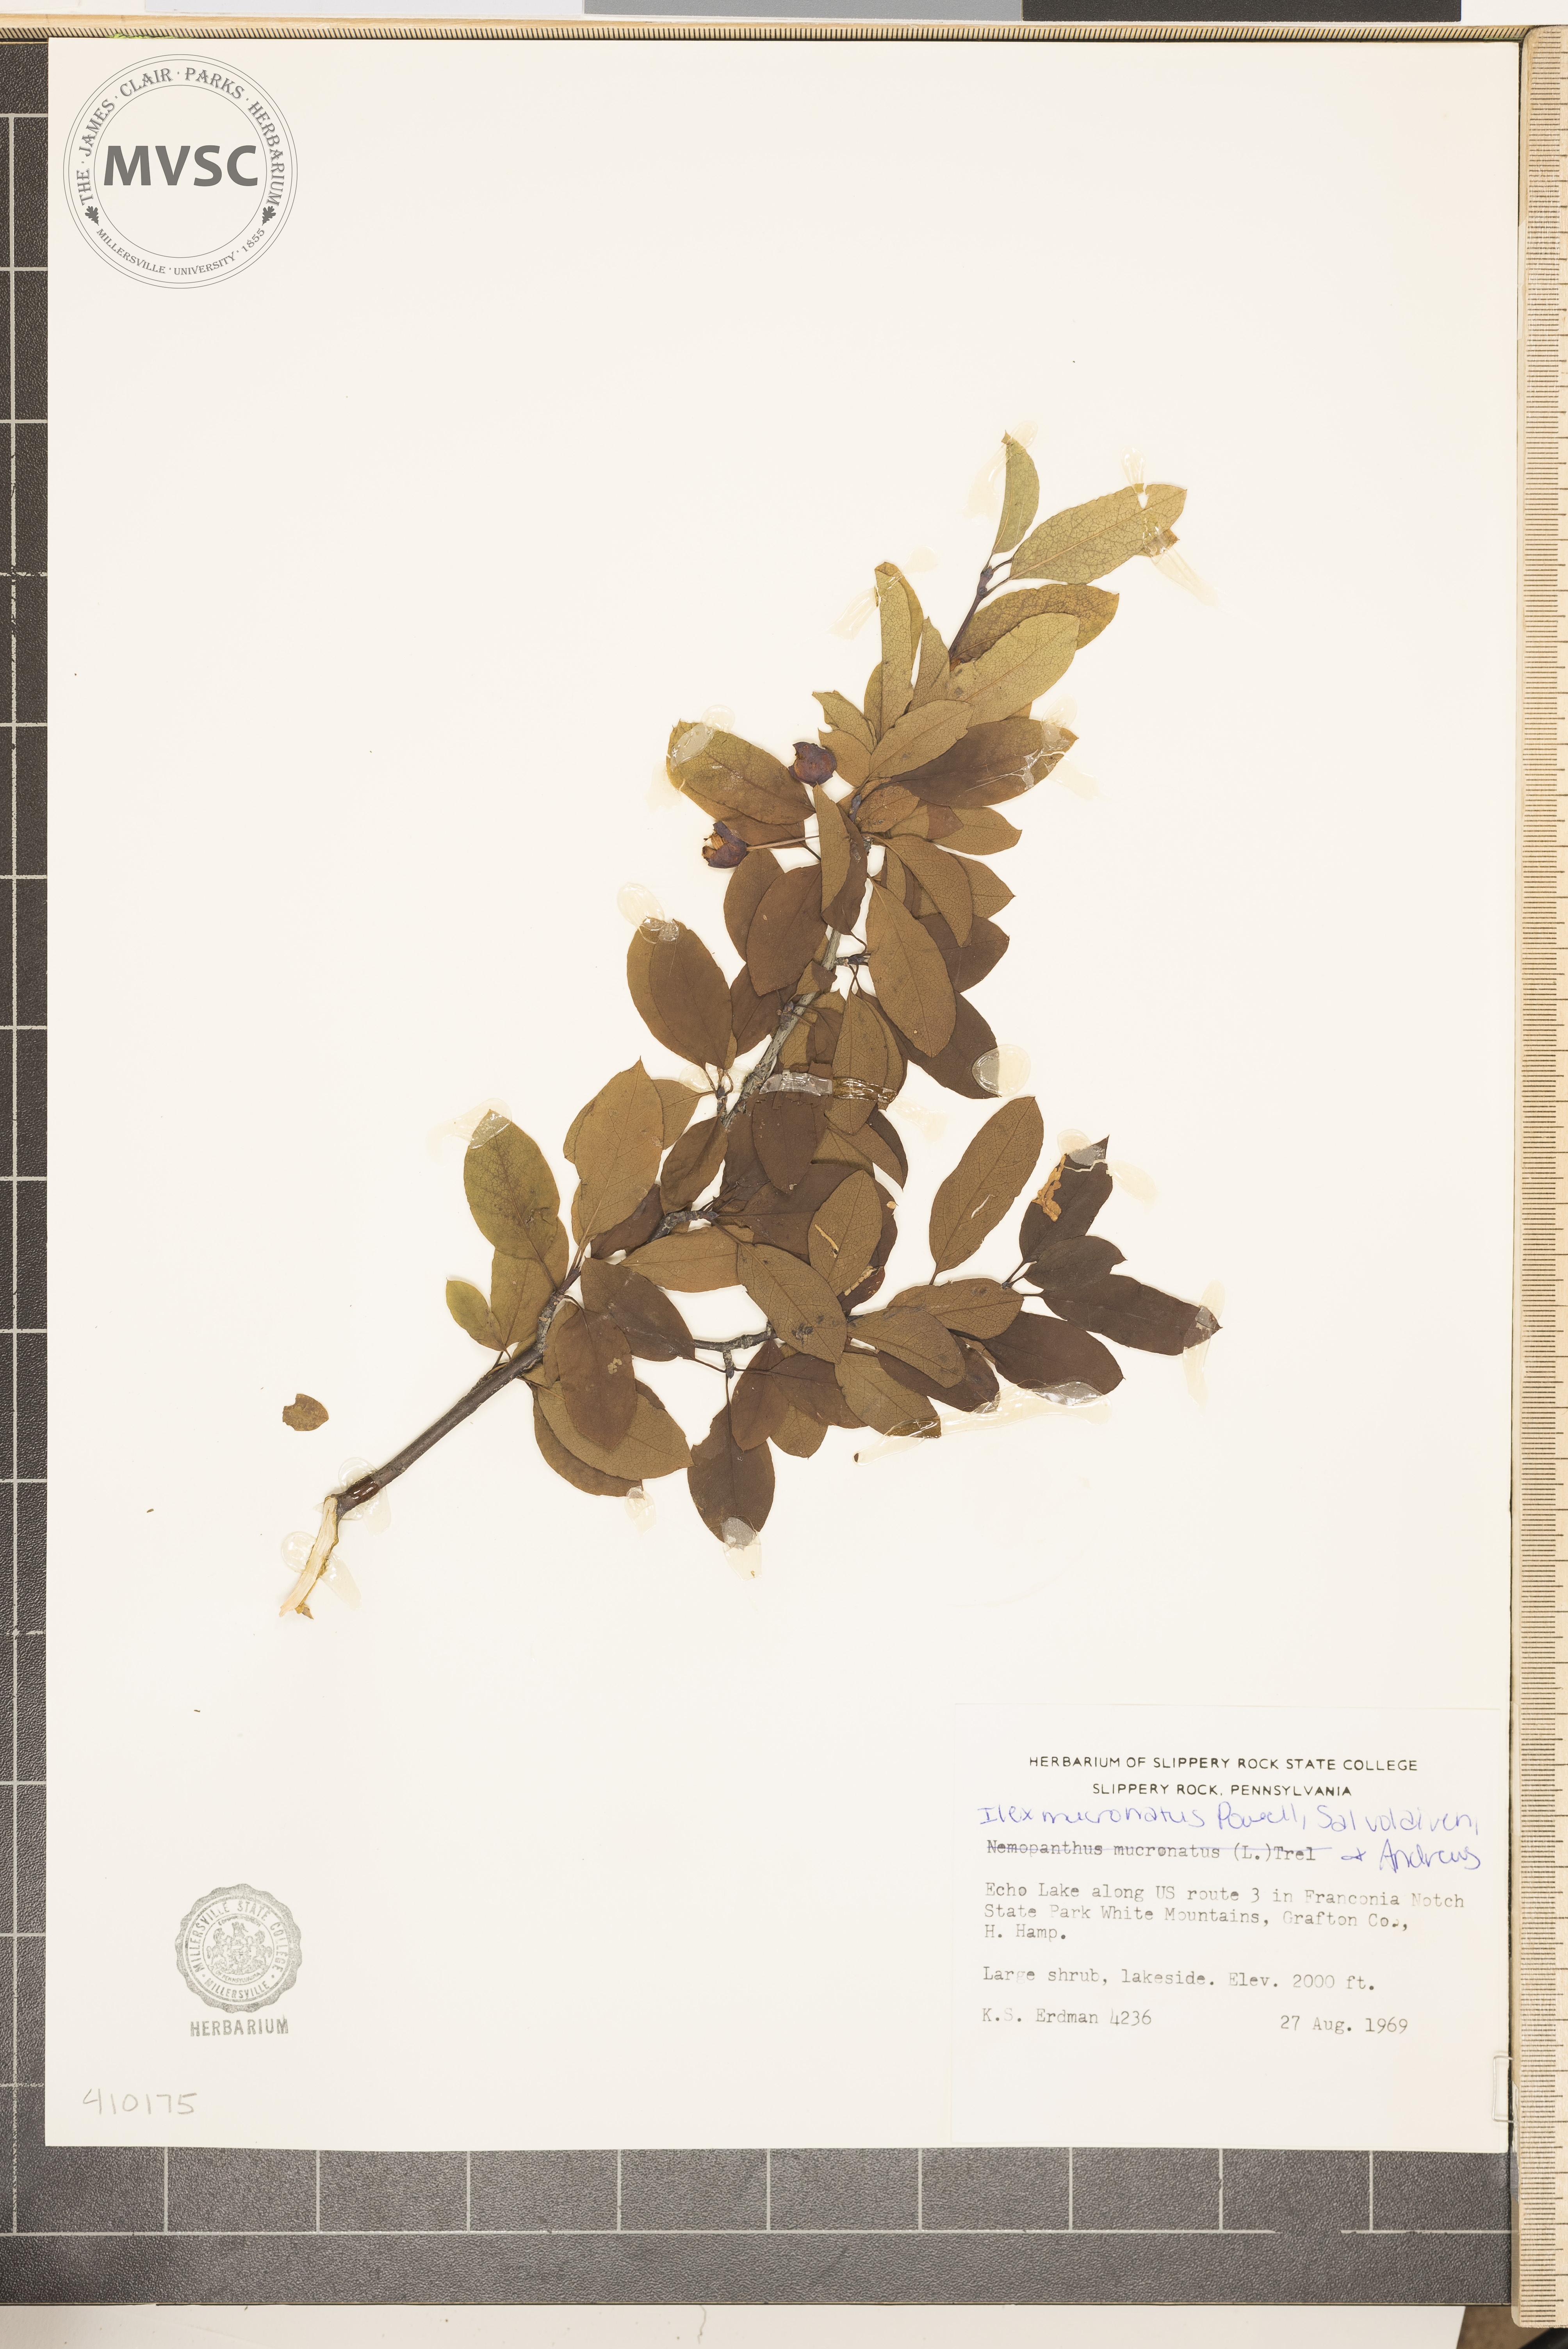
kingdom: Plantae
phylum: Tracheophyta
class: Magnoliopsida
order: Aquifoliales
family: Aquifoliaceae
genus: Ilex
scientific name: Ilex mucronata
